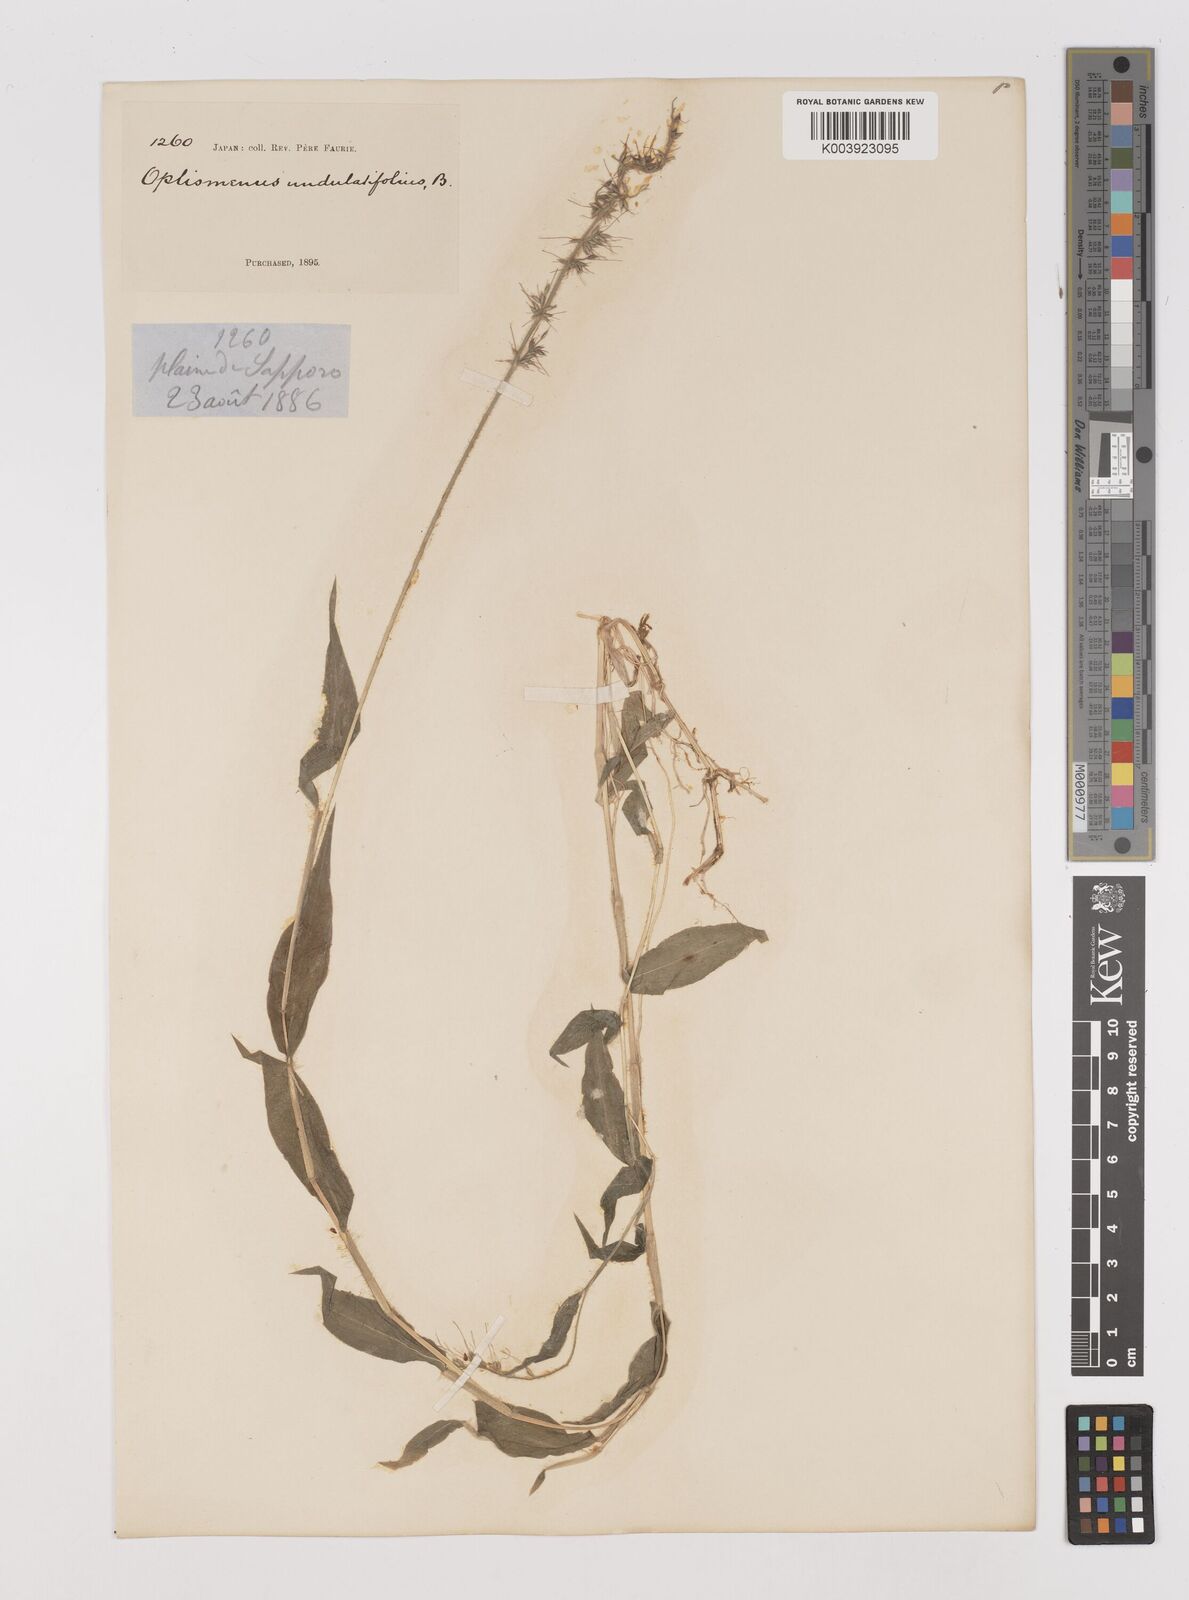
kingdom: Plantae
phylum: Tracheophyta
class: Liliopsida
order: Poales
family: Poaceae
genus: Oplismenus
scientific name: Oplismenus undulatifolius
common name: Wavyleaf basketgrass
